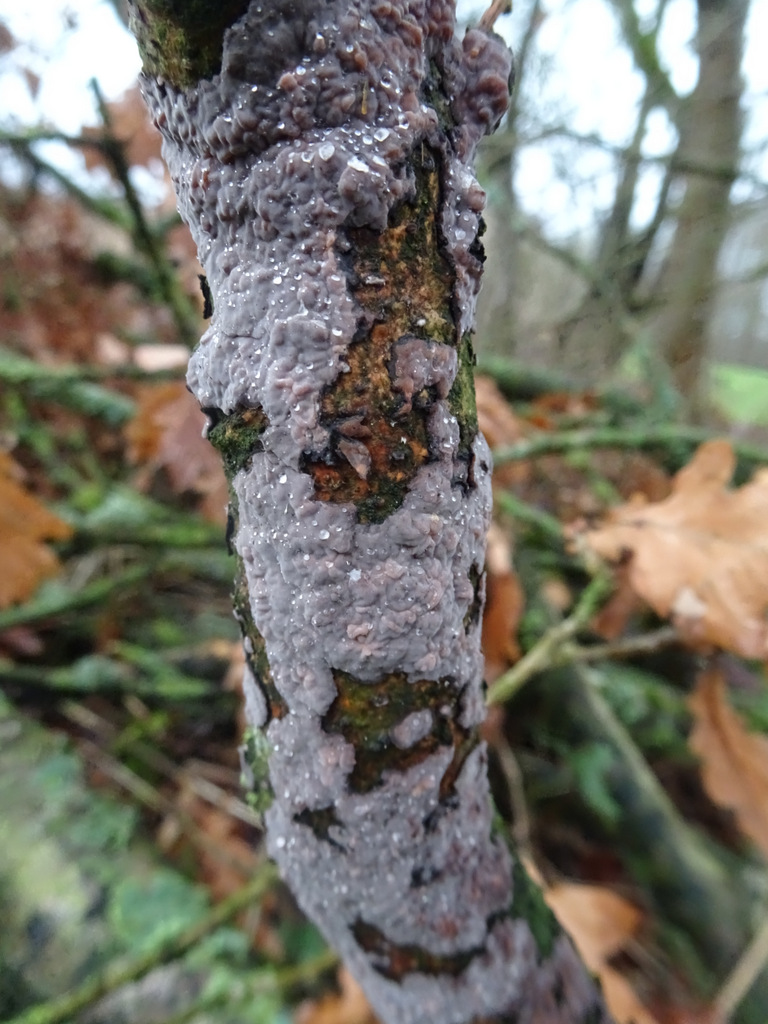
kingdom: Fungi
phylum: Basidiomycota
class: Agaricomycetes
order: Russulales
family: Peniophoraceae
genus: Peniophora
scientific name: Peniophora quercina
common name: ege-voksskind
